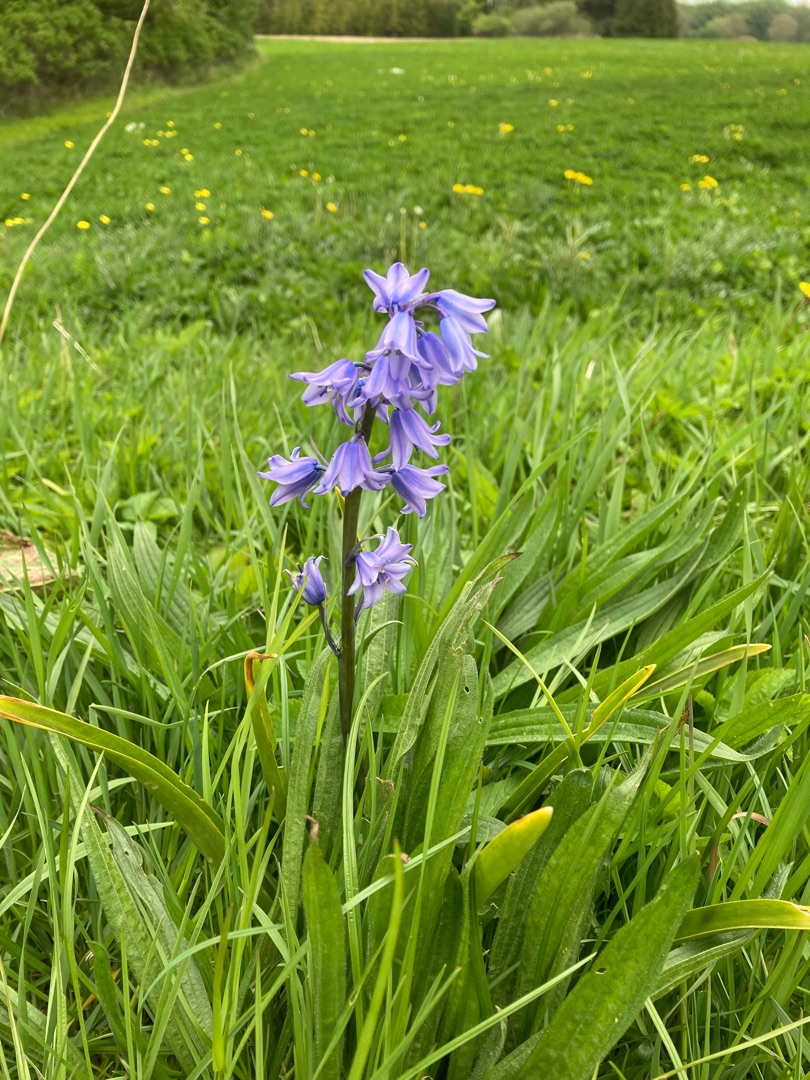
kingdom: Plantae
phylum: Tracheophyta
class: Liliopsida
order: Asparagales
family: Asparagaceae
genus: Hyacinthoides
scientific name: Hyacinthoides hispanica
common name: Spansk skilla
